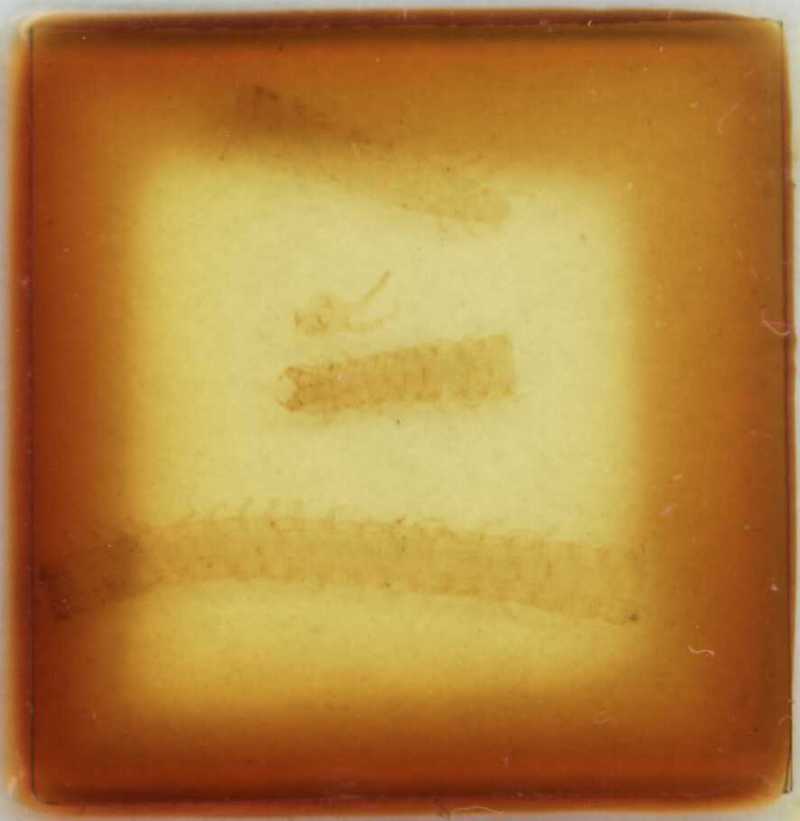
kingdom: Animalia
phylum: Arthropoda
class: Chilopoda
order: Geophilomorpha
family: Himantariidae
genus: Polyporogaster
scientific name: Polyporogaster turkestana
